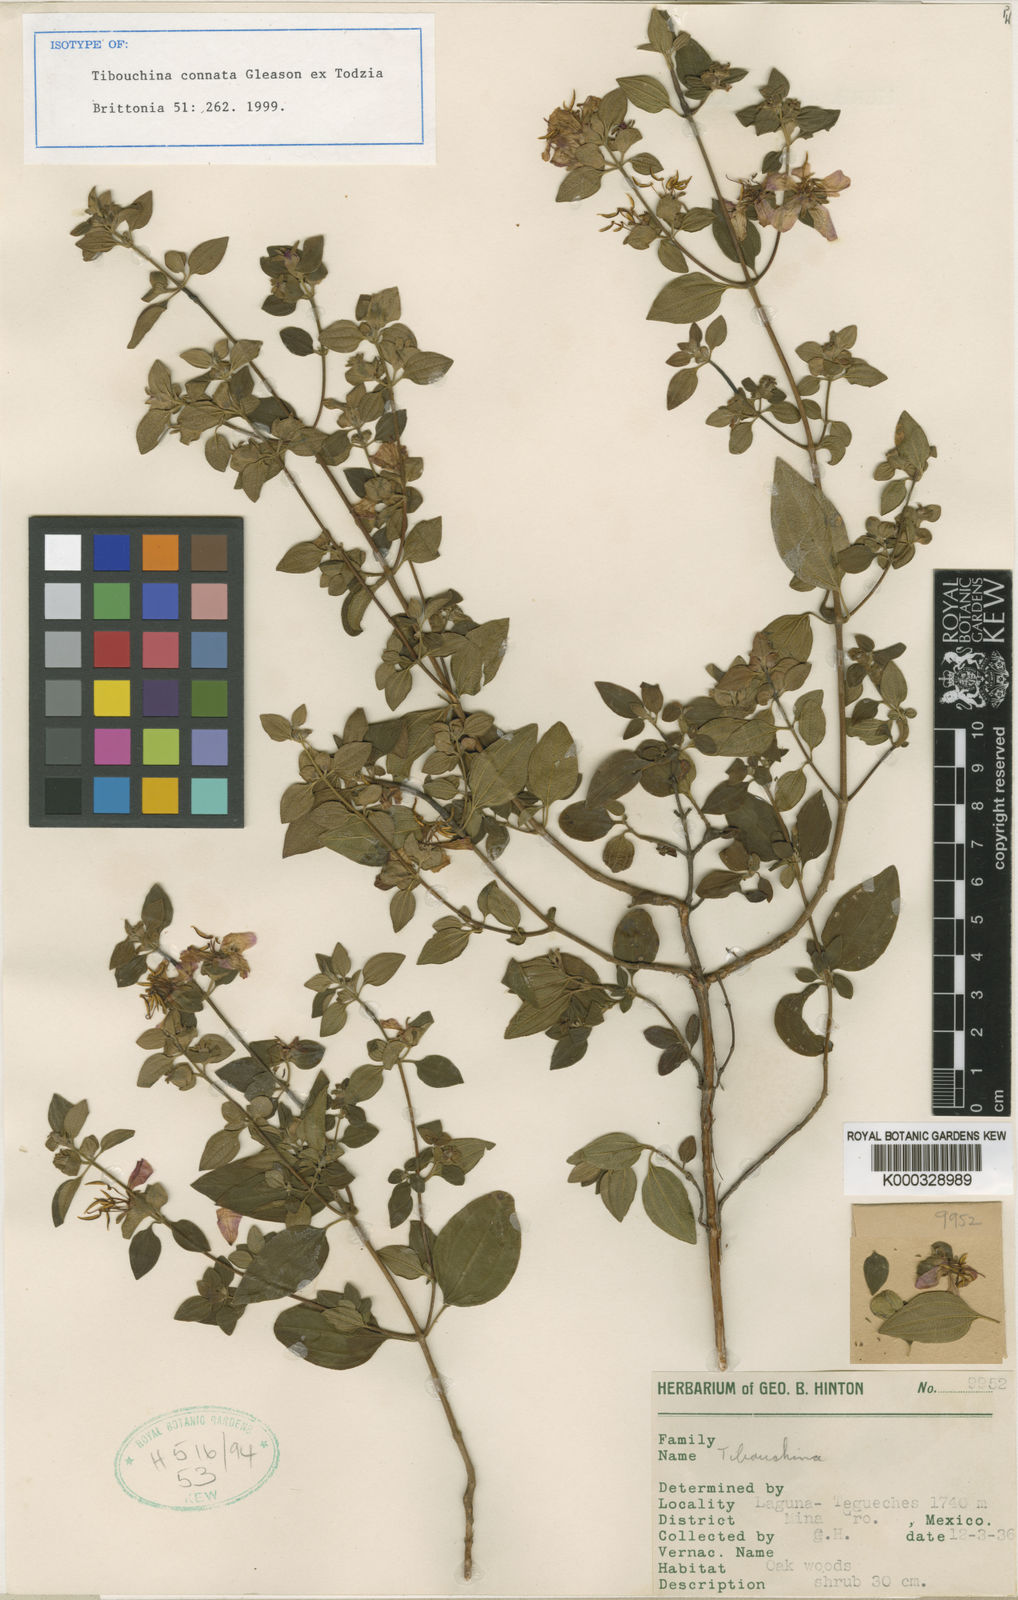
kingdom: Plantae
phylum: Tracheophyta
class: Magnoliopsida
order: Myrtales
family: Melastomataceae
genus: Chaetogastra
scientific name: Chaetogastra connata
